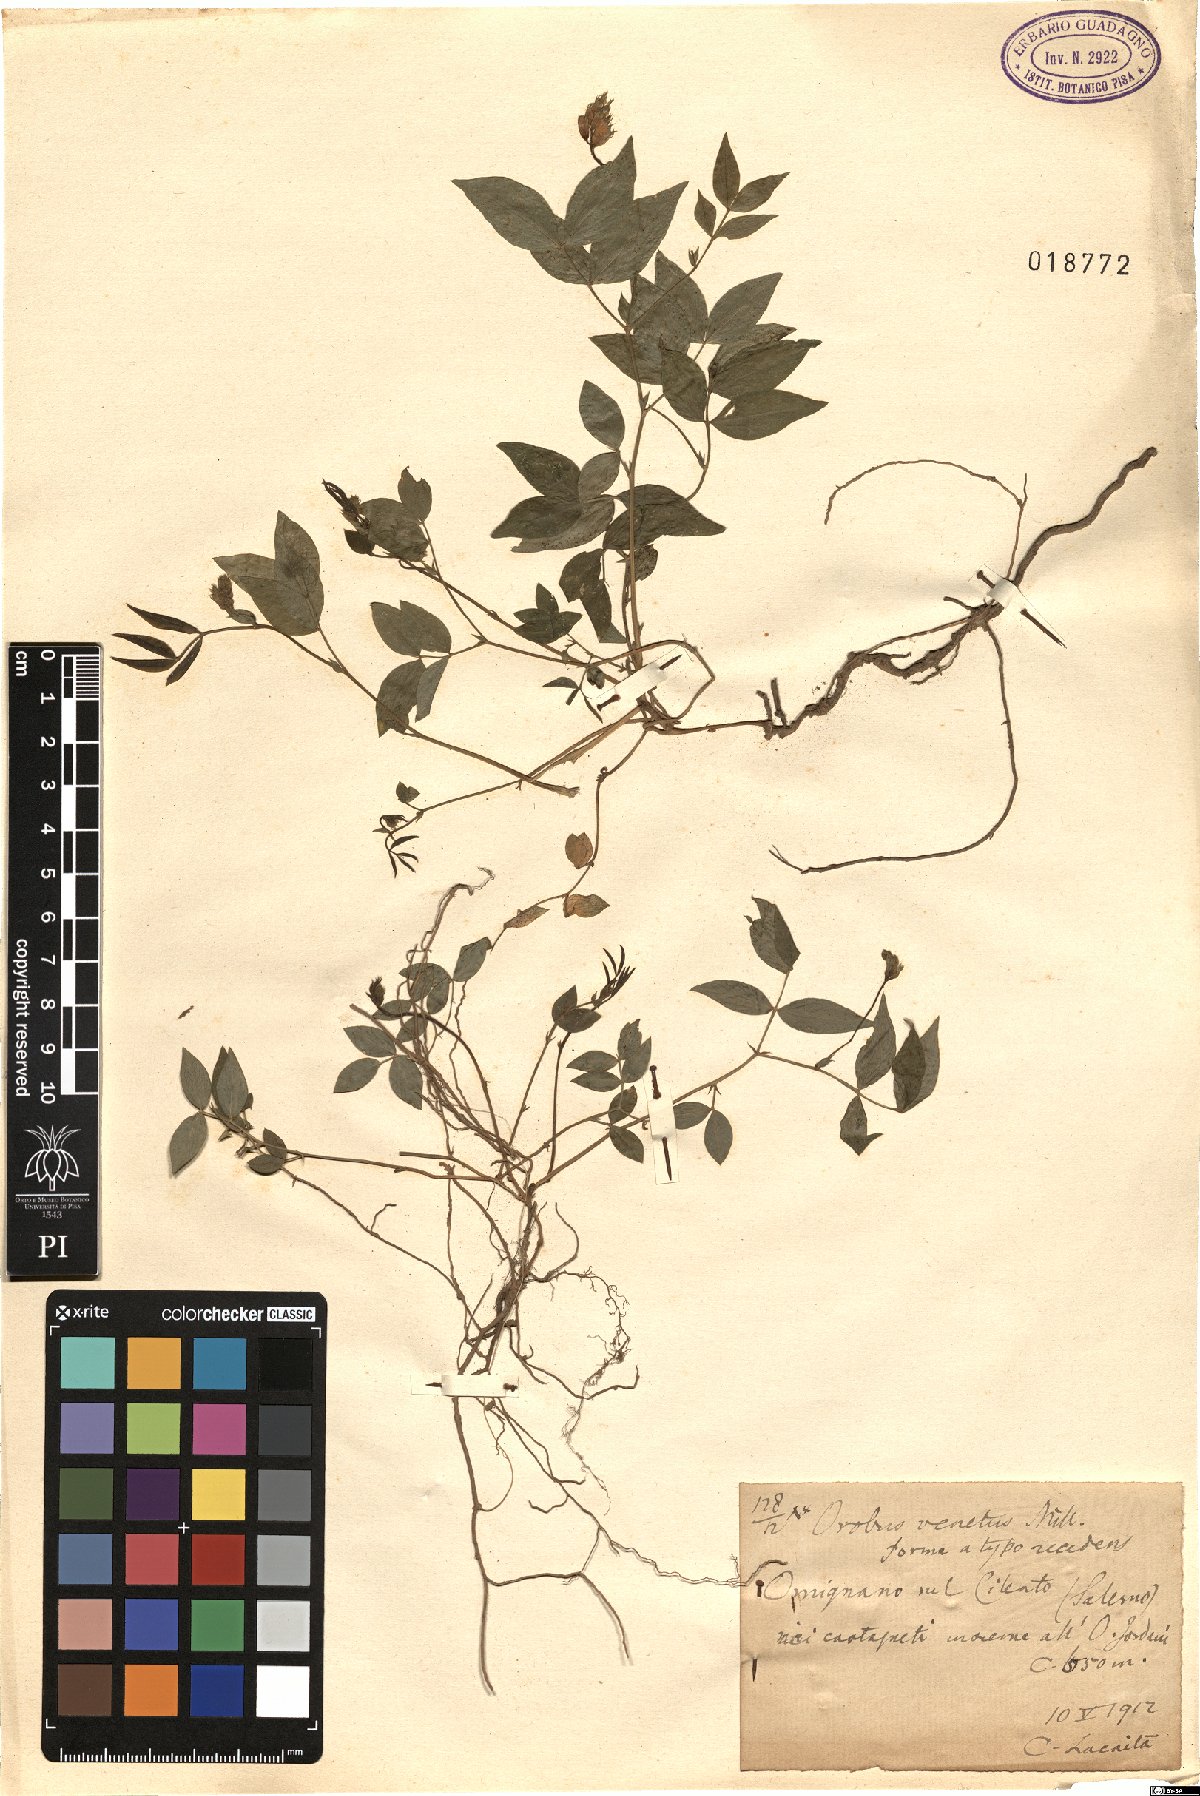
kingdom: Plantae
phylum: Tracheophyta
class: Magnoliopsida
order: Fabales
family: Fabaceae
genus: Lathyrus
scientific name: Lathyrus venetus
